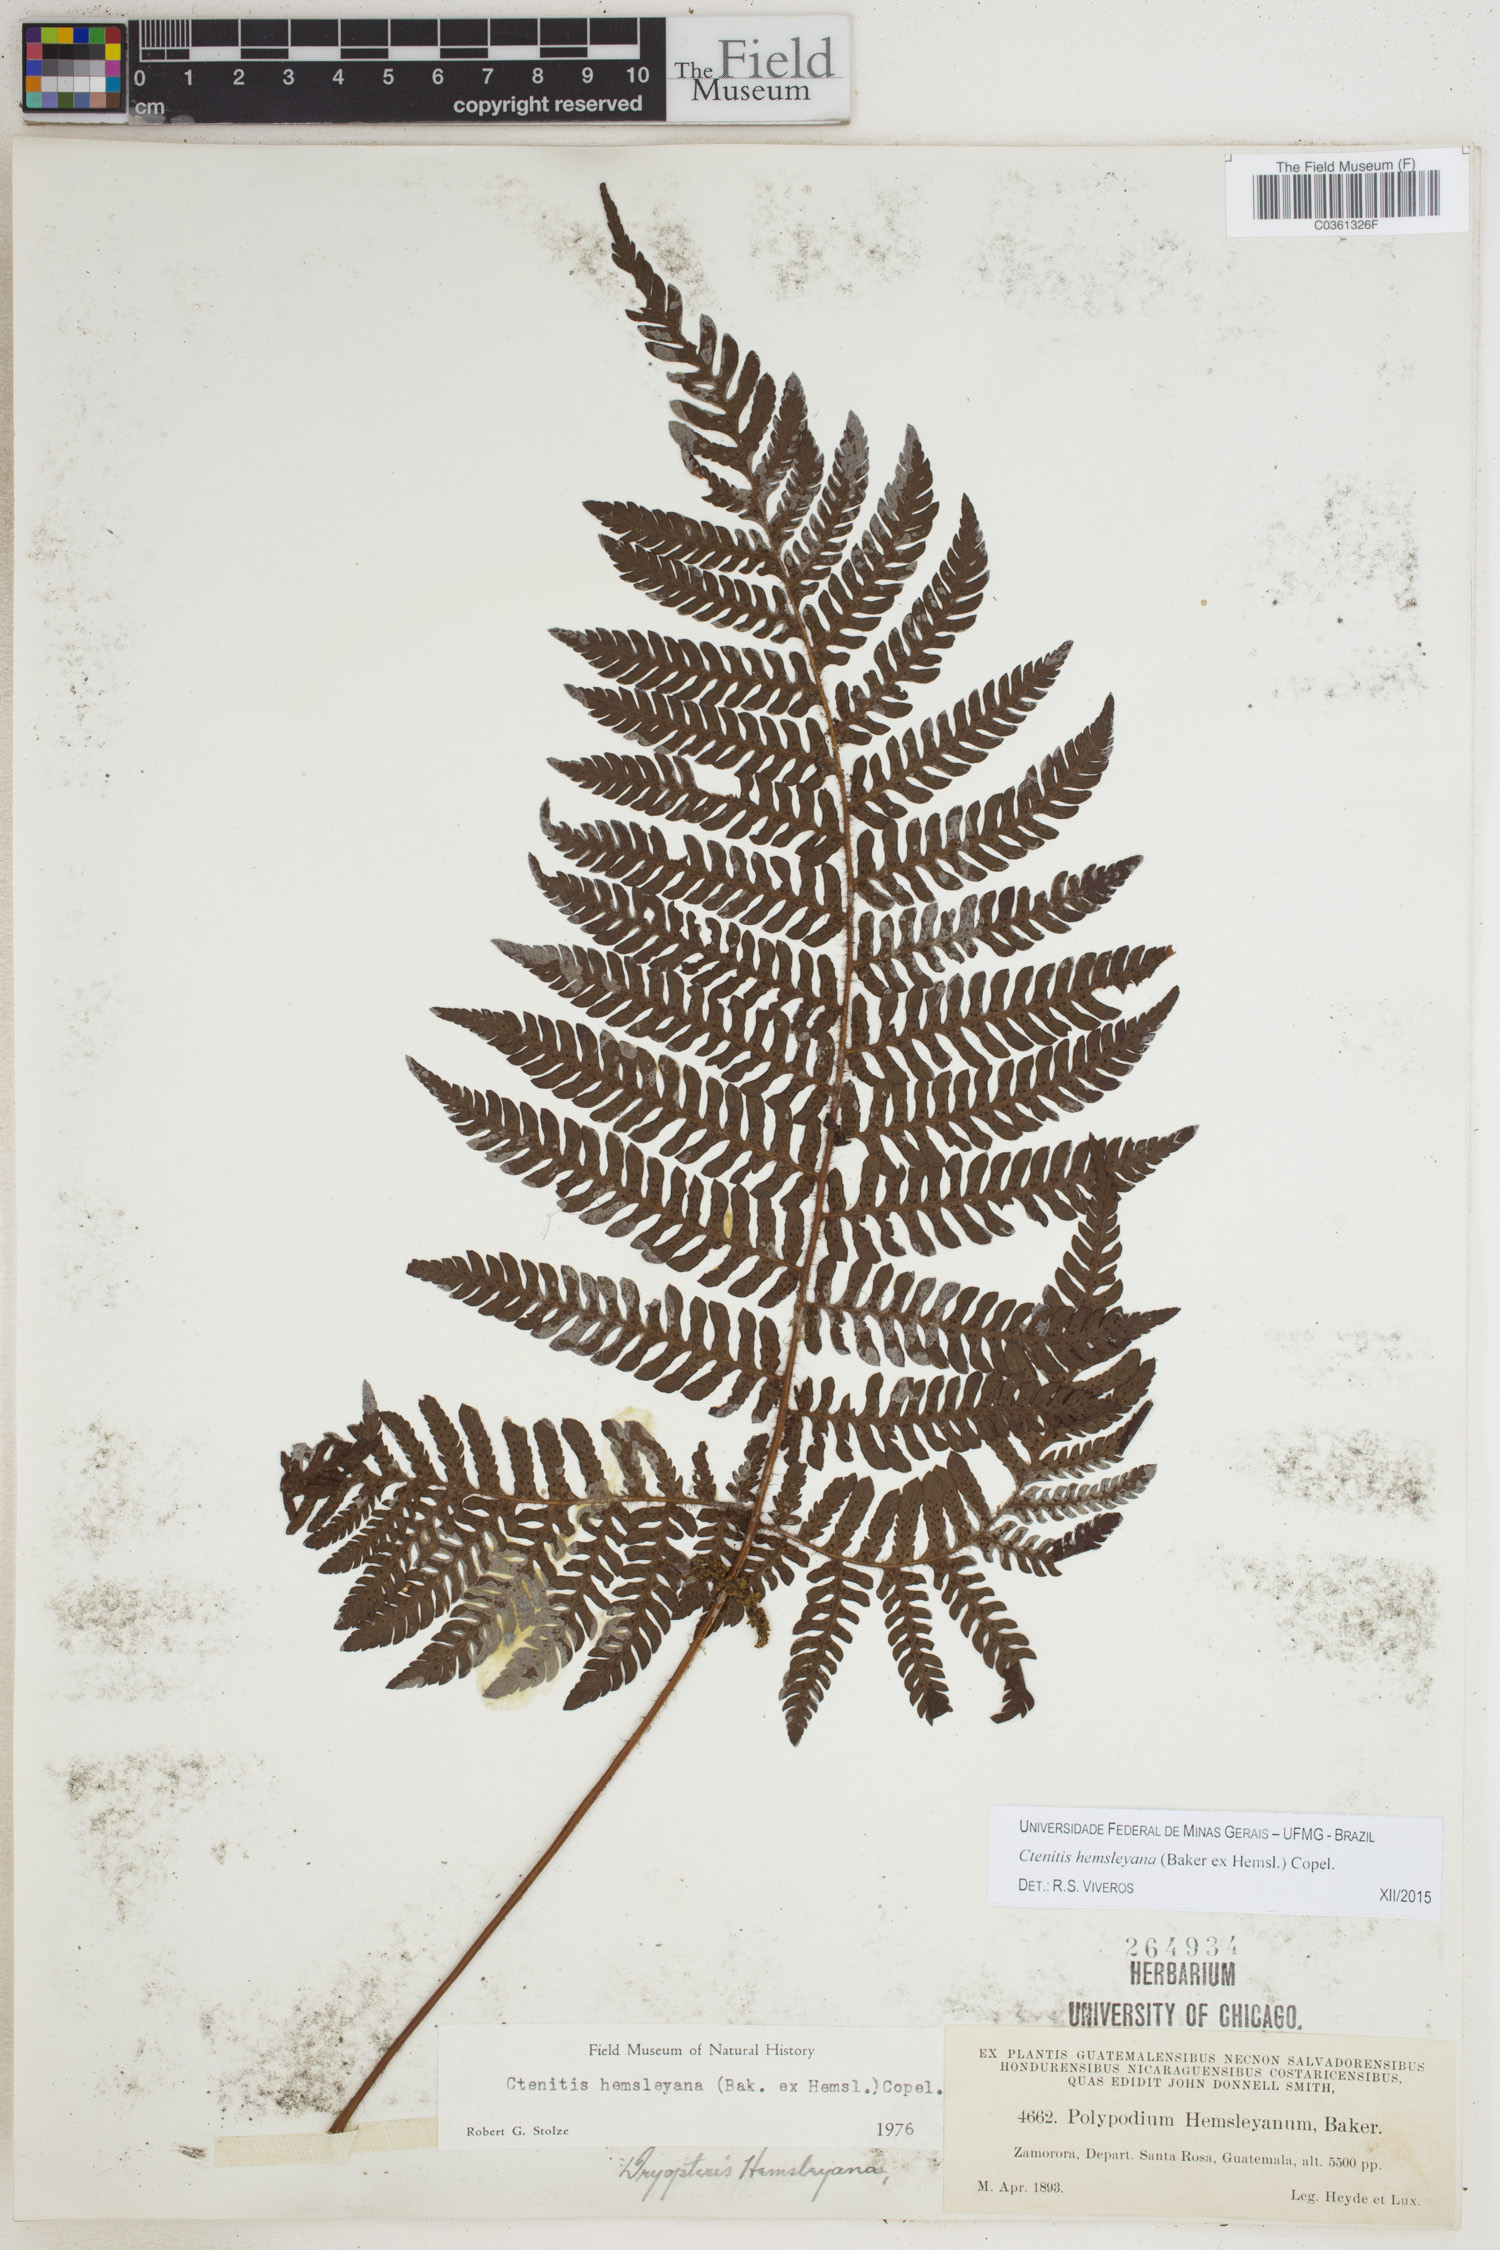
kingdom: Plantae
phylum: Tracheophyta
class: Polypodiopsida
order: Polypodiales
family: Dryopteridaceae
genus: Ctenitis
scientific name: Ctenitis hemsleyana
